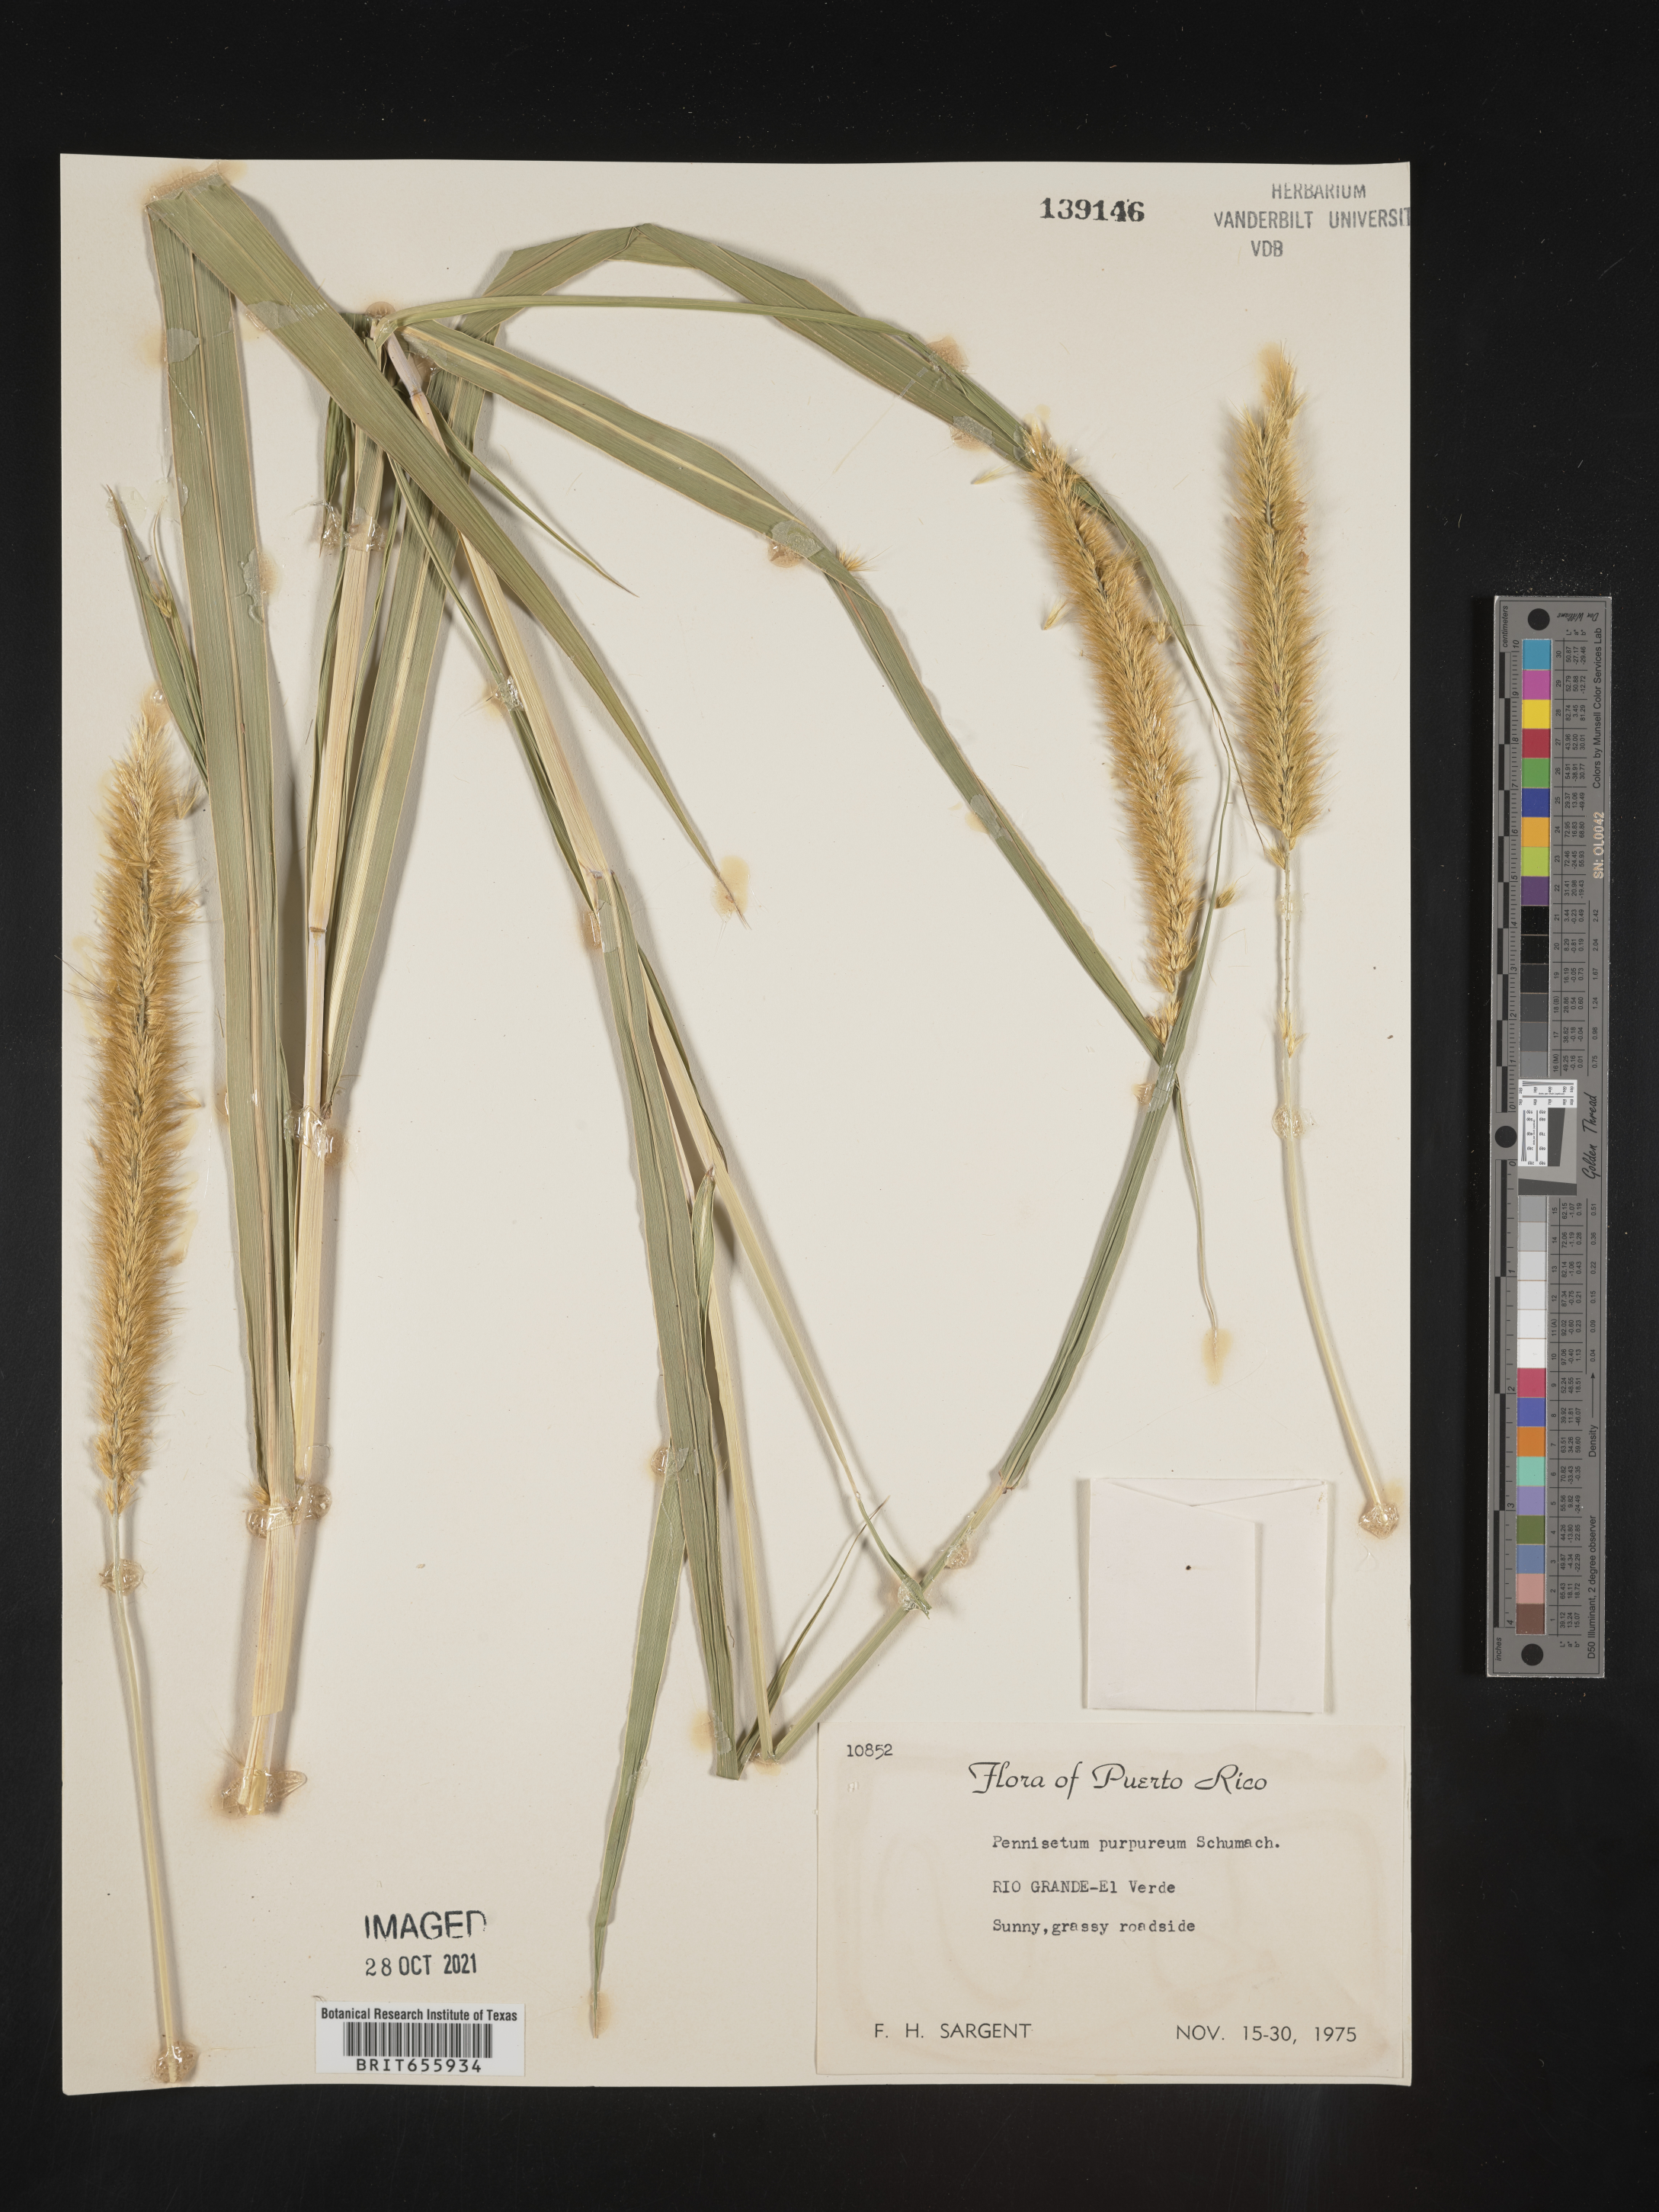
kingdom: Plantae
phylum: Tracheophyta
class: Liliopsida
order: Poales
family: Poaceae
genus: Cenchrus
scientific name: Cenchrus Pennisetum spec
